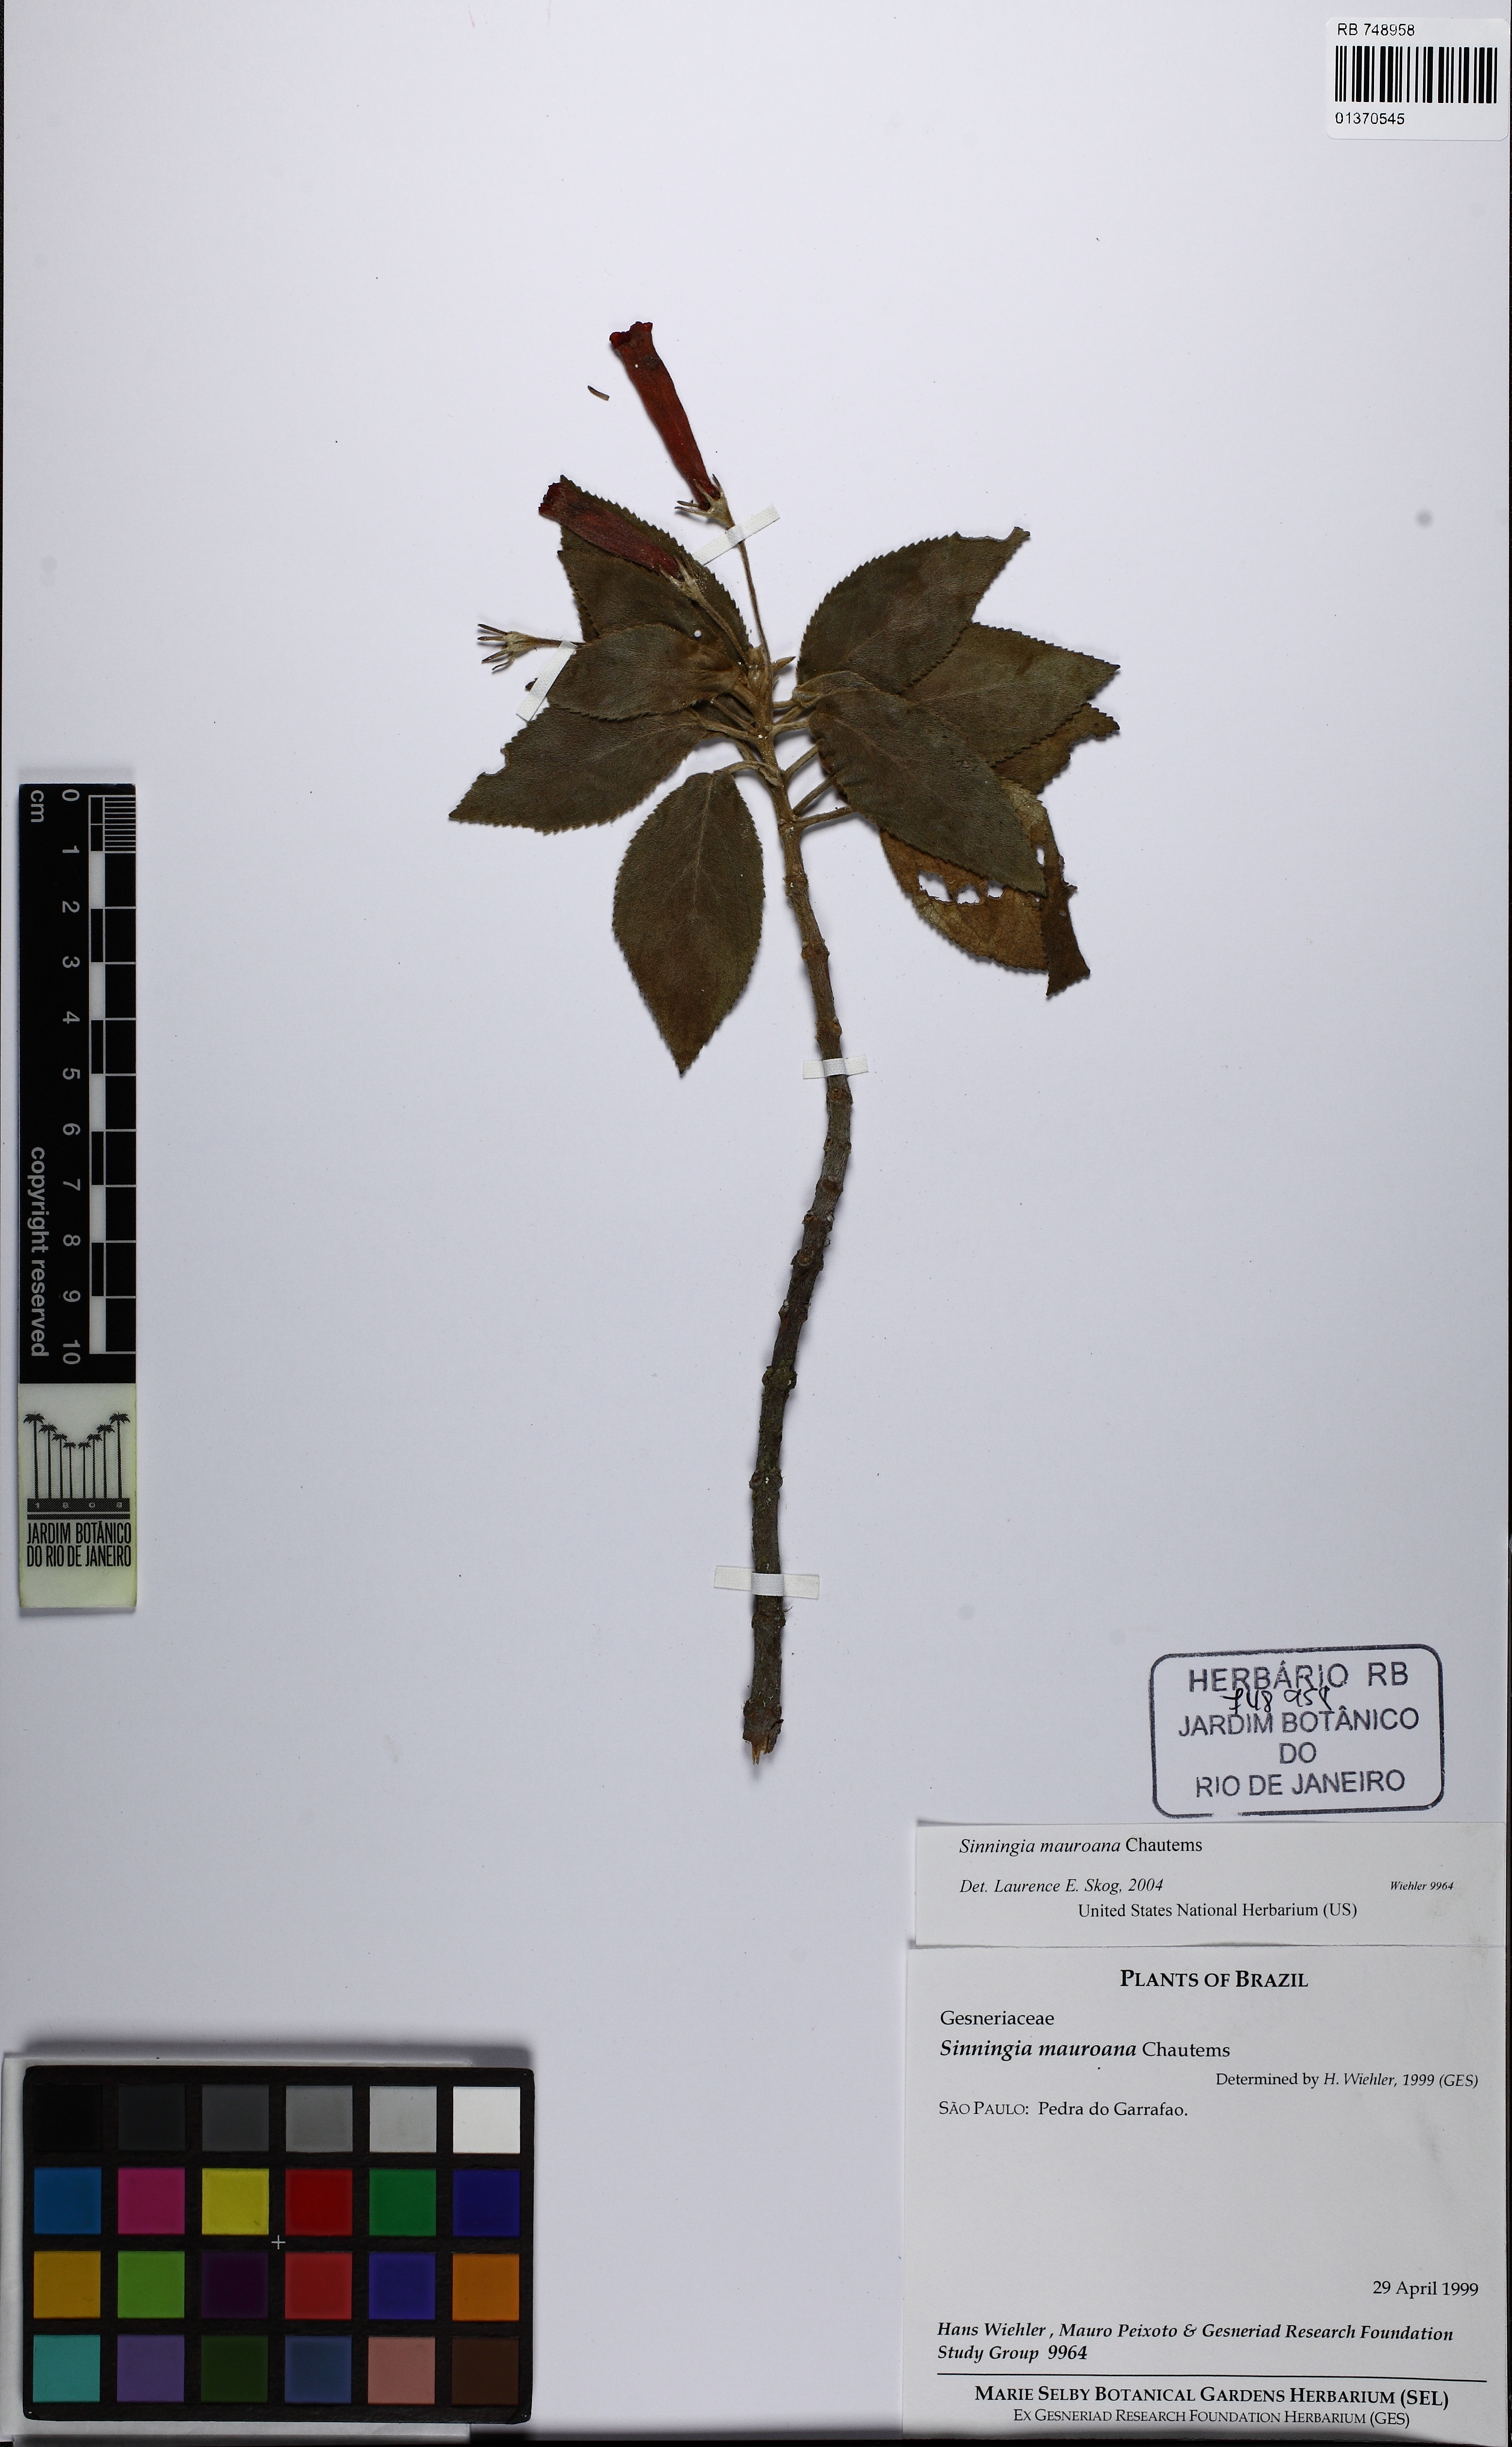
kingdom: Plantae
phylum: Tracheophyta
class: Magnoliopsida
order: Lamiales
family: Gesneriaceae
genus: Sinningia
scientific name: Sinningia mauroana
